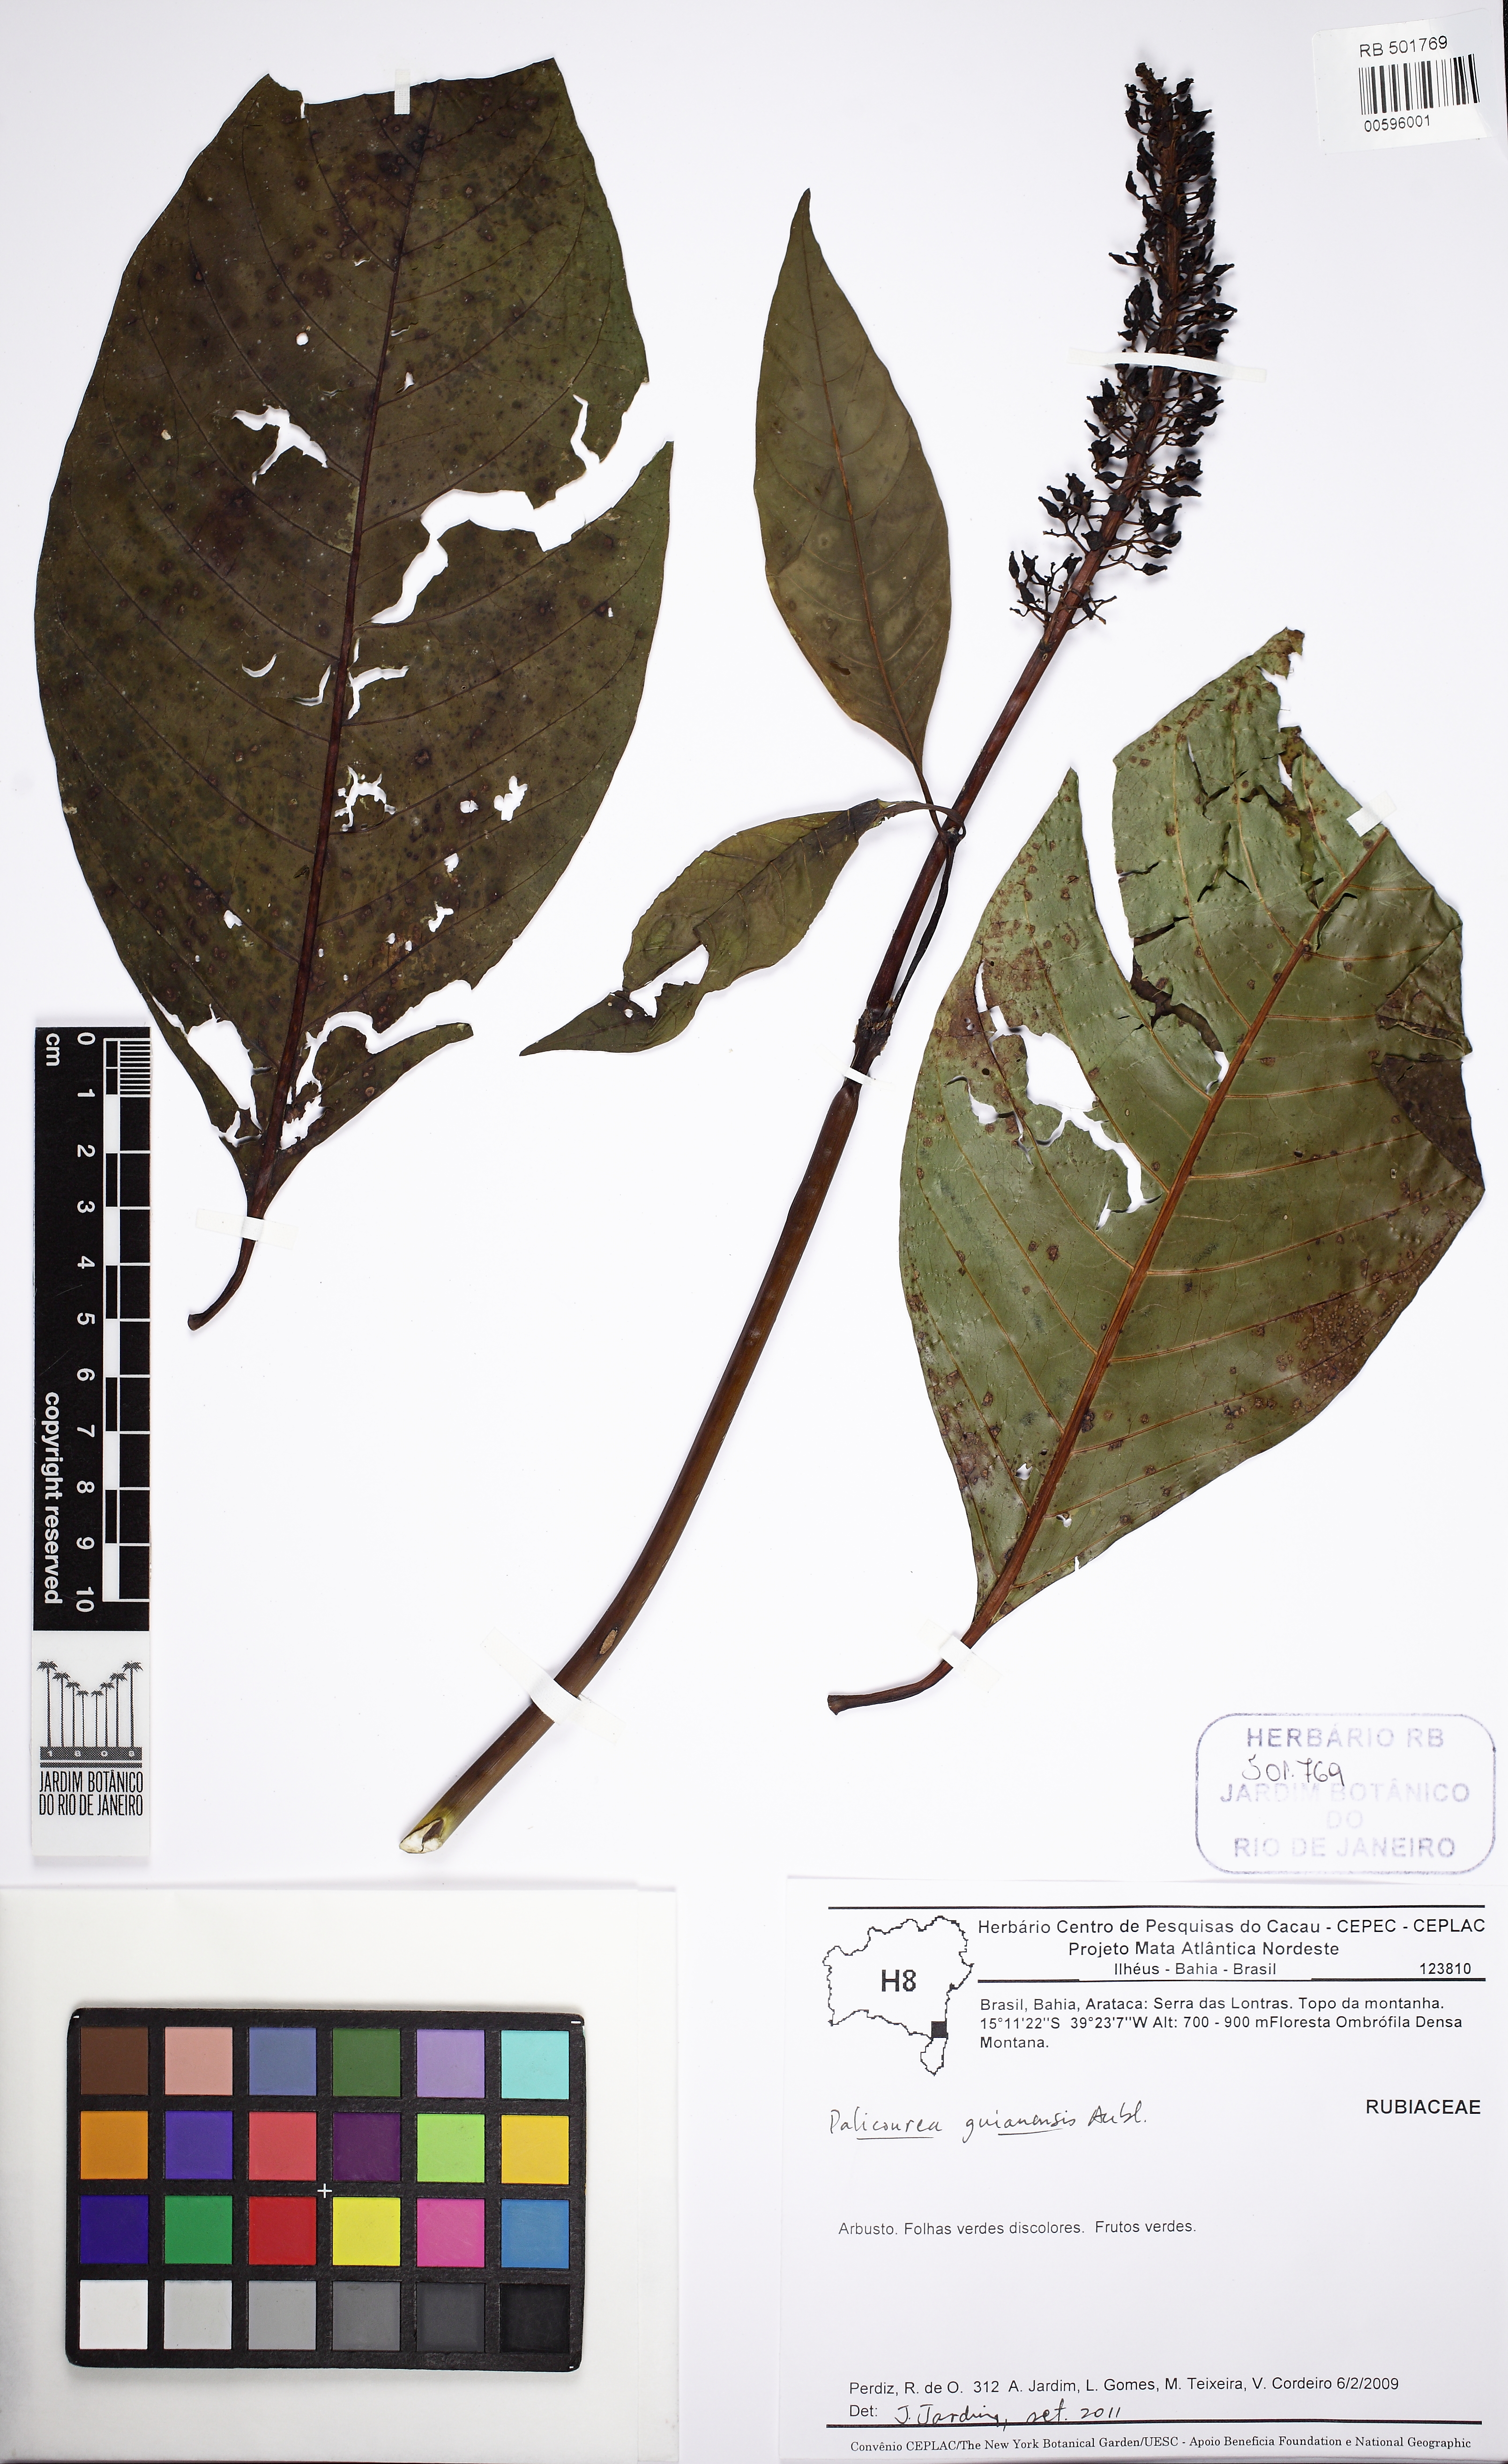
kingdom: Plantae
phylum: Tracheophyta
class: Magnoliopsida
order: Gentianales
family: Rubiaceae
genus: Palicourea
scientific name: Palicourea guianensis
